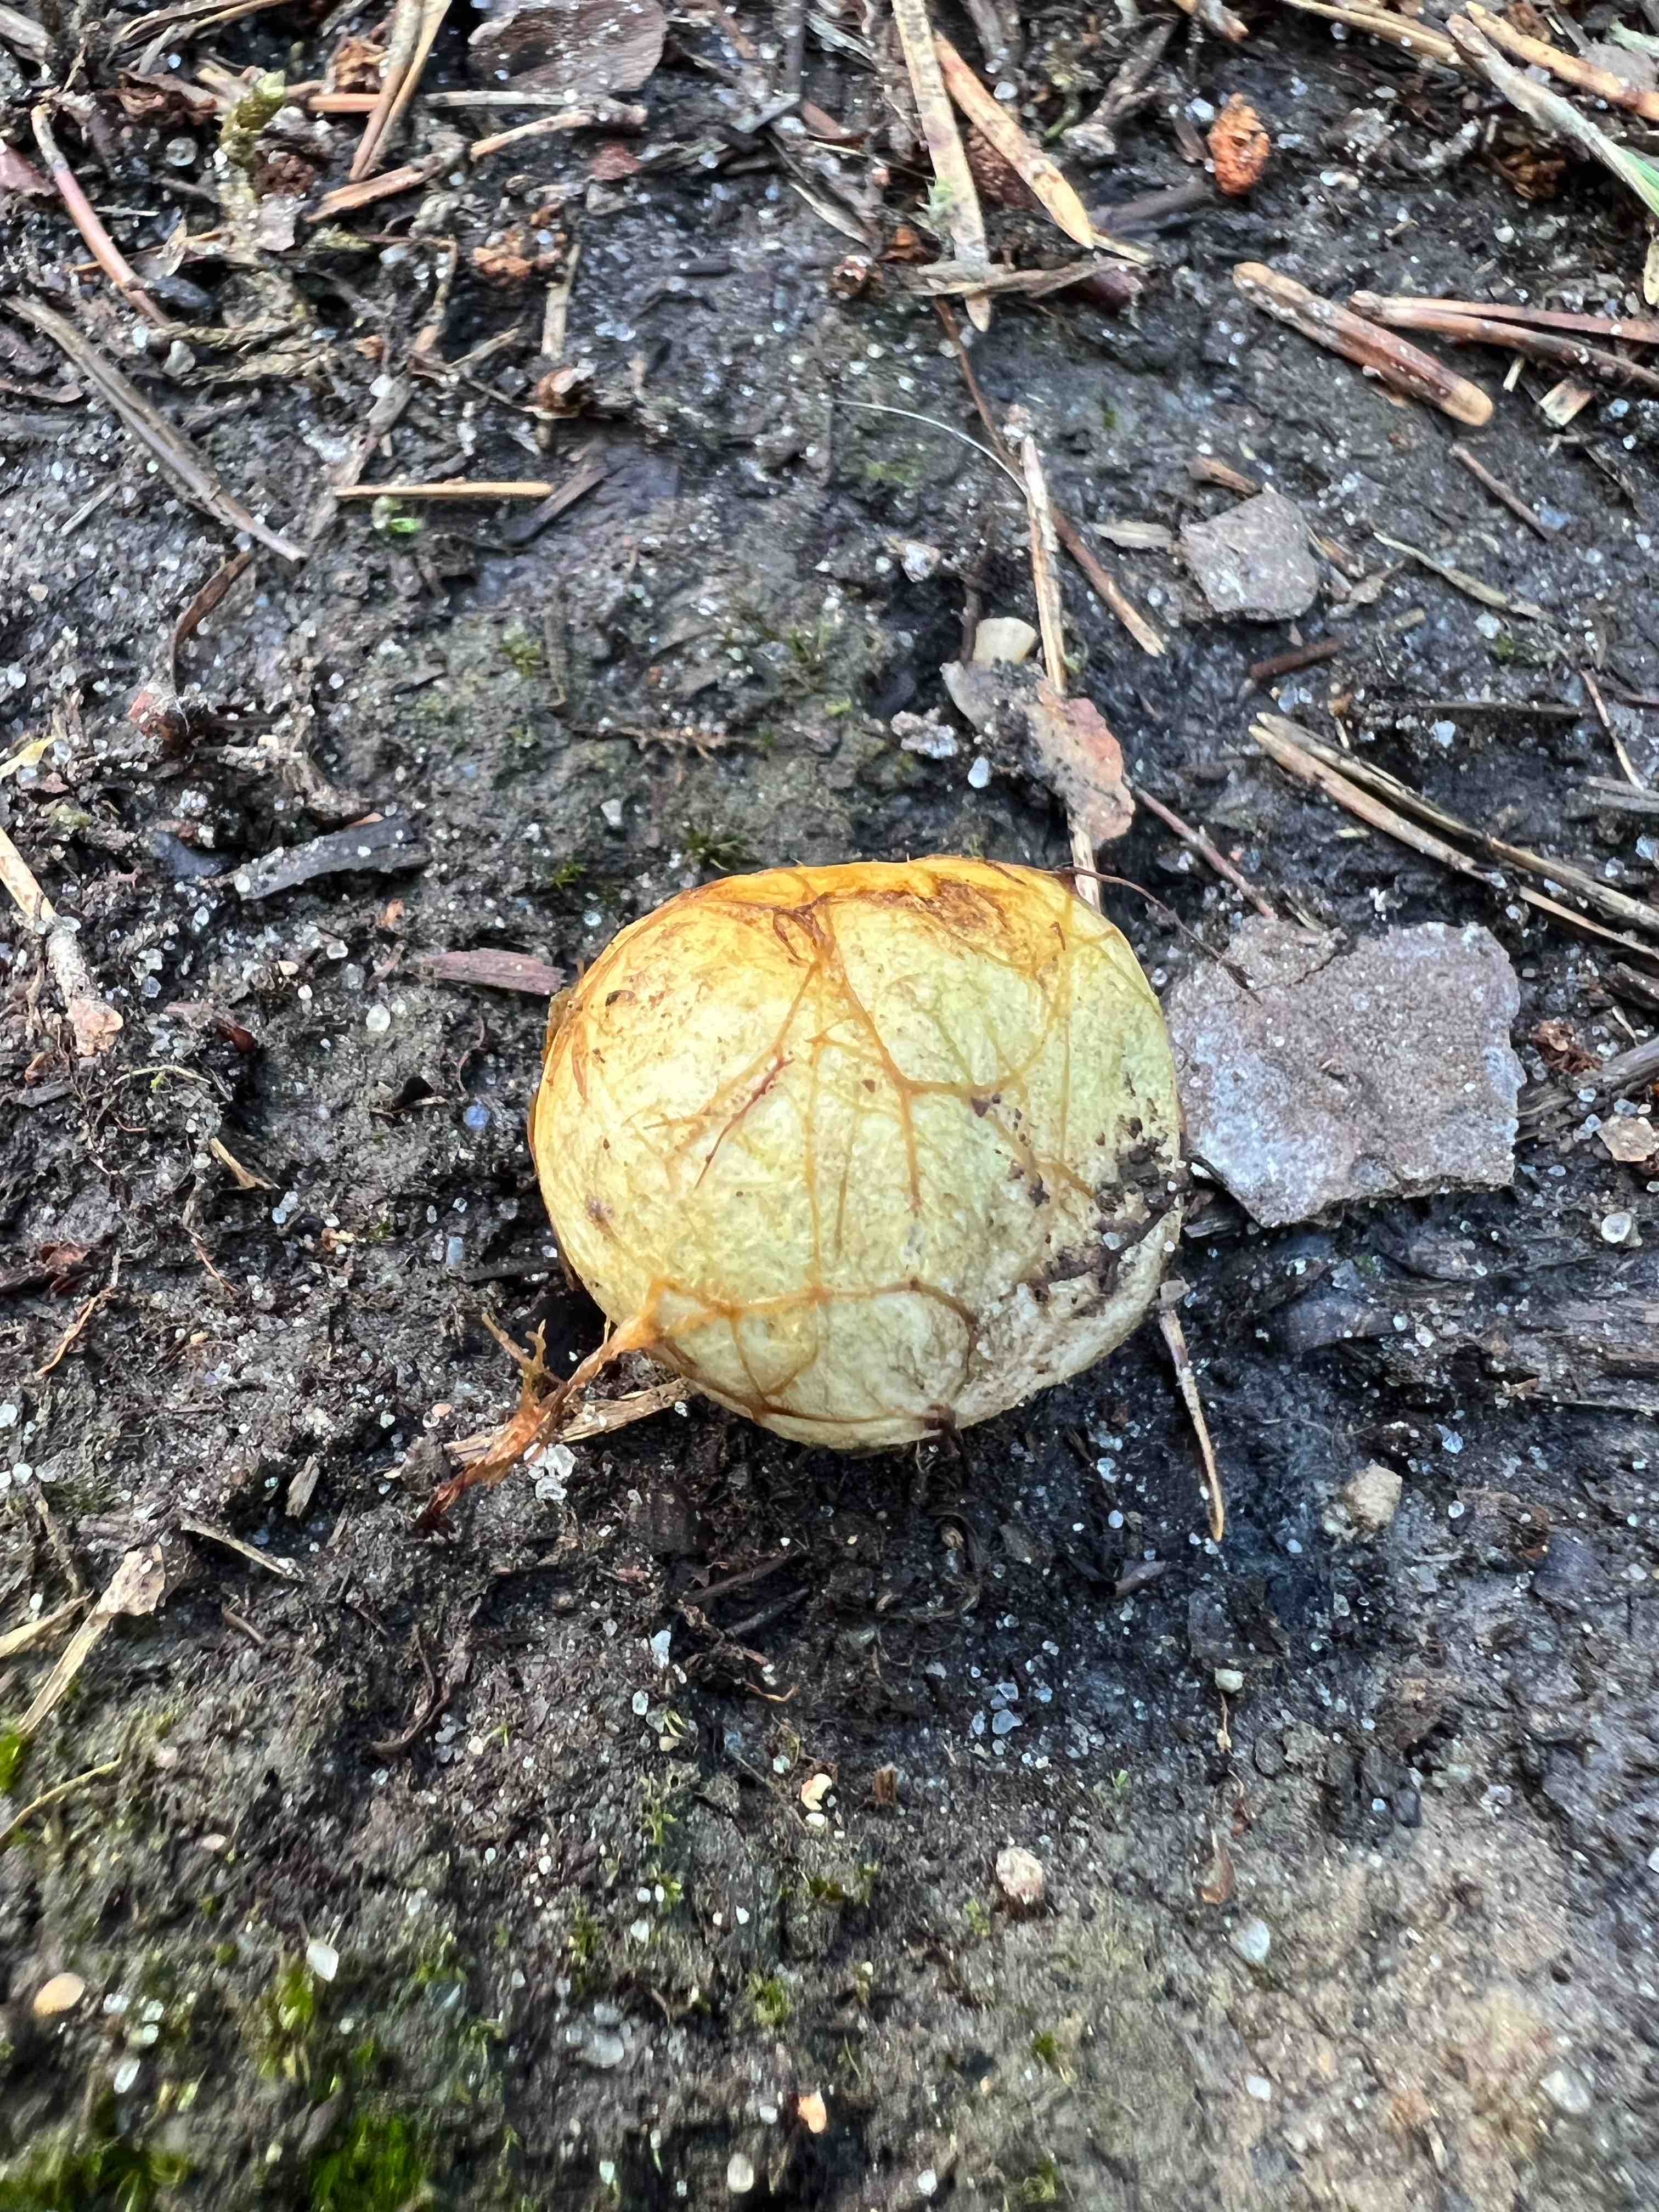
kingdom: Fungi
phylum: Basidiomycota
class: Agaricomycetes
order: Boletales
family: Rhizopogonaceae
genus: Rhizopogon
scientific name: Rhizopogon obtextus
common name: gul skægtrøffel
